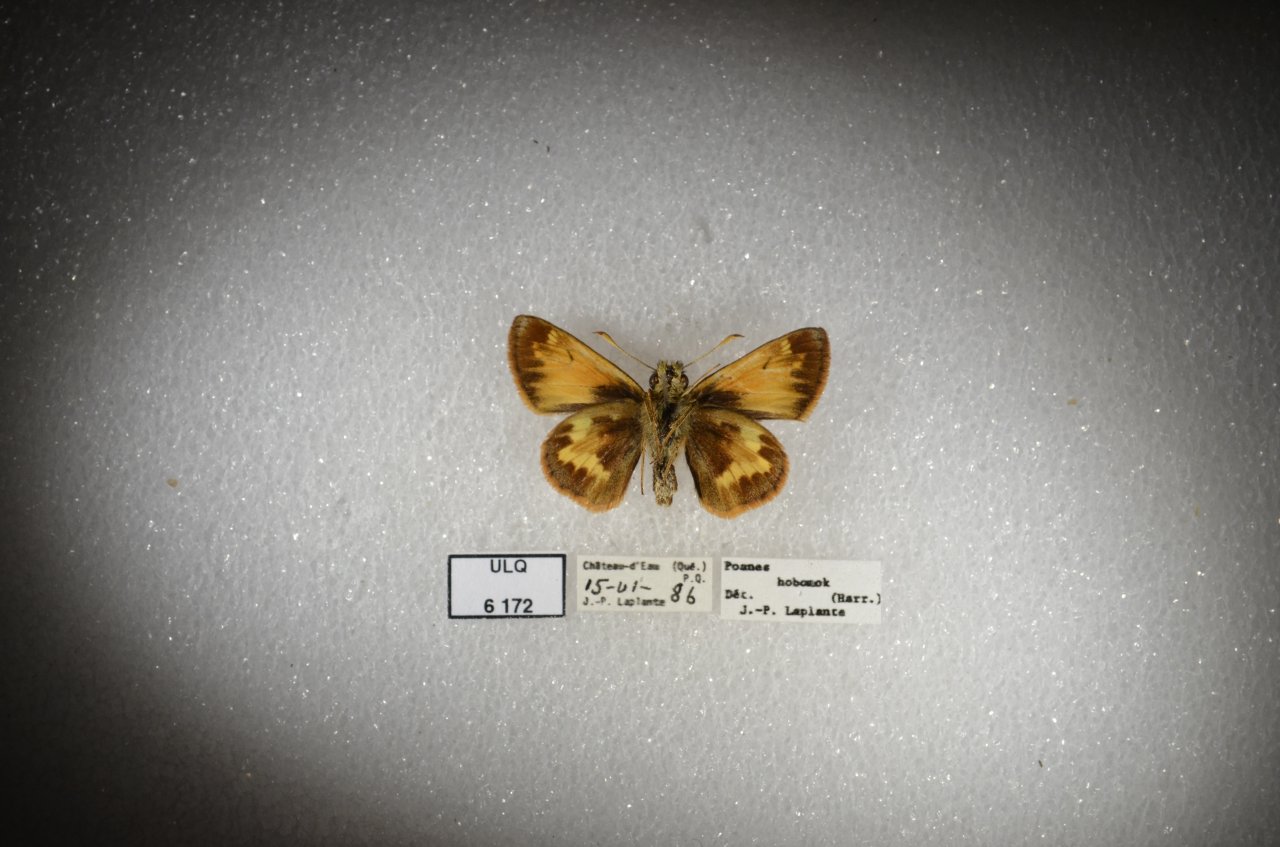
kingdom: Animalia
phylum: Arthropoda
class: Insecta
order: Lepidoptera
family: Hesperiidae
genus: Lon
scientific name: Lon hobomok
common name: Hobomok Skipper
